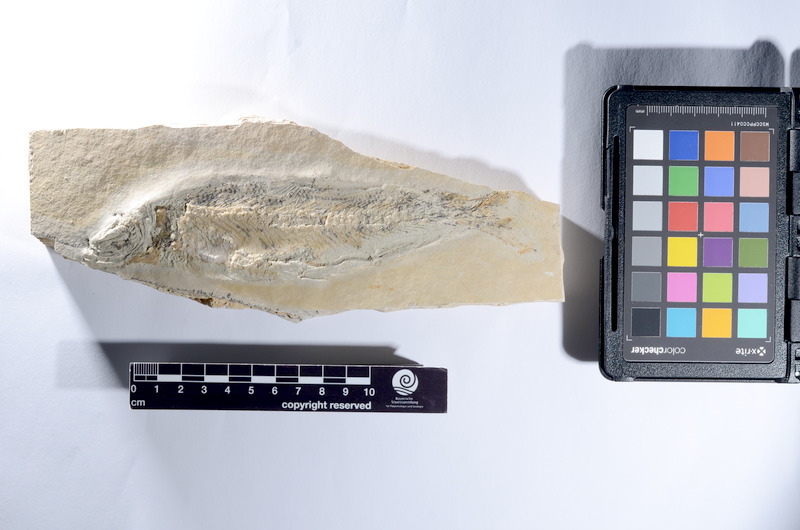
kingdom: Animalia
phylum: Chordata
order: Elopiformes
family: Anaethalionidae
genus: Anaethalion
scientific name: Anaethalion knorri
